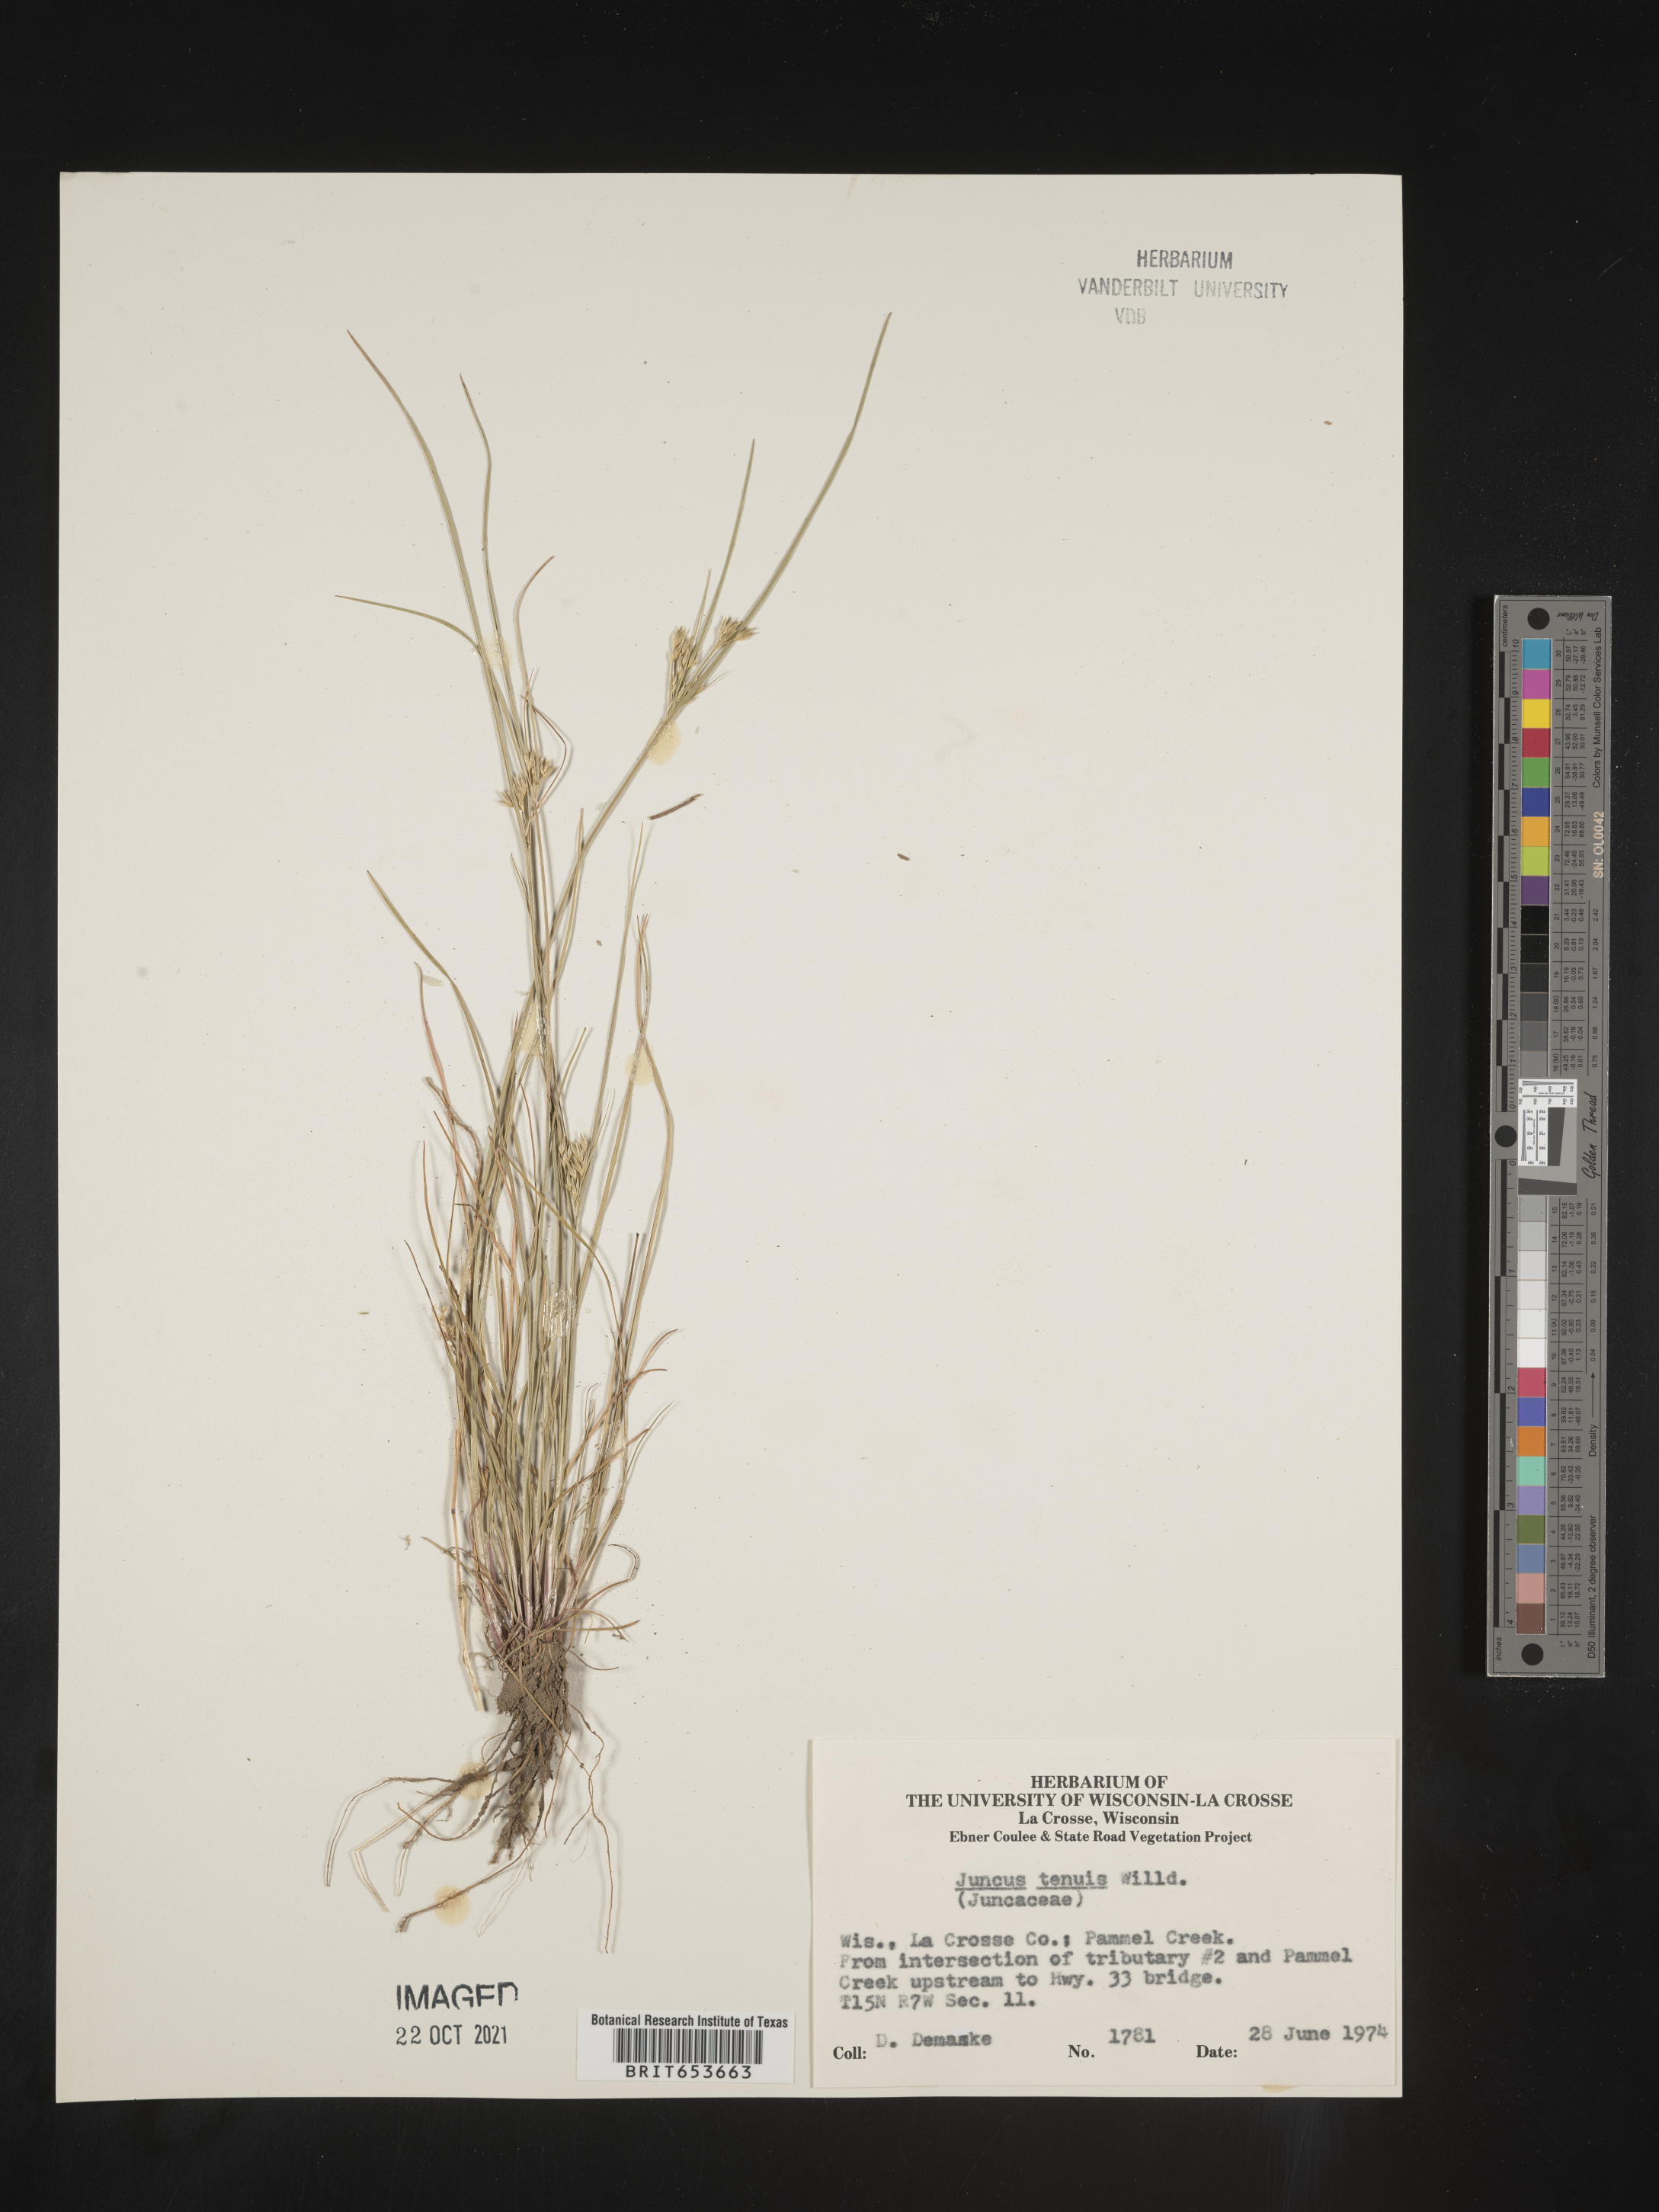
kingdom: Plantae
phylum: Tracheophyta
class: Liliopsida
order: Poales
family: Juncaceae
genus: Juncus
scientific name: Juncus tenuis
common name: Slender rush
